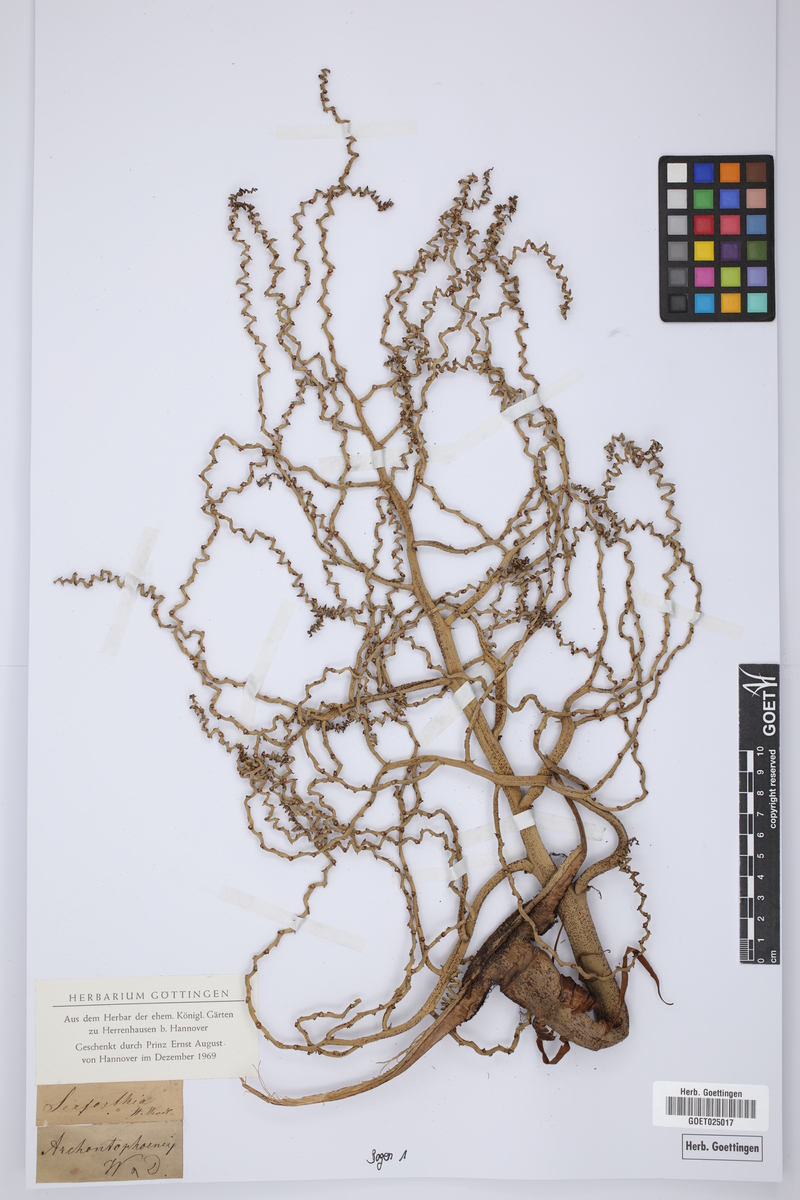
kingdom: Plantae
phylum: Tracheophyta
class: Liliopsida
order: Arecales
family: Arecaceae
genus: Ptychosperma
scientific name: Ptychosperma
